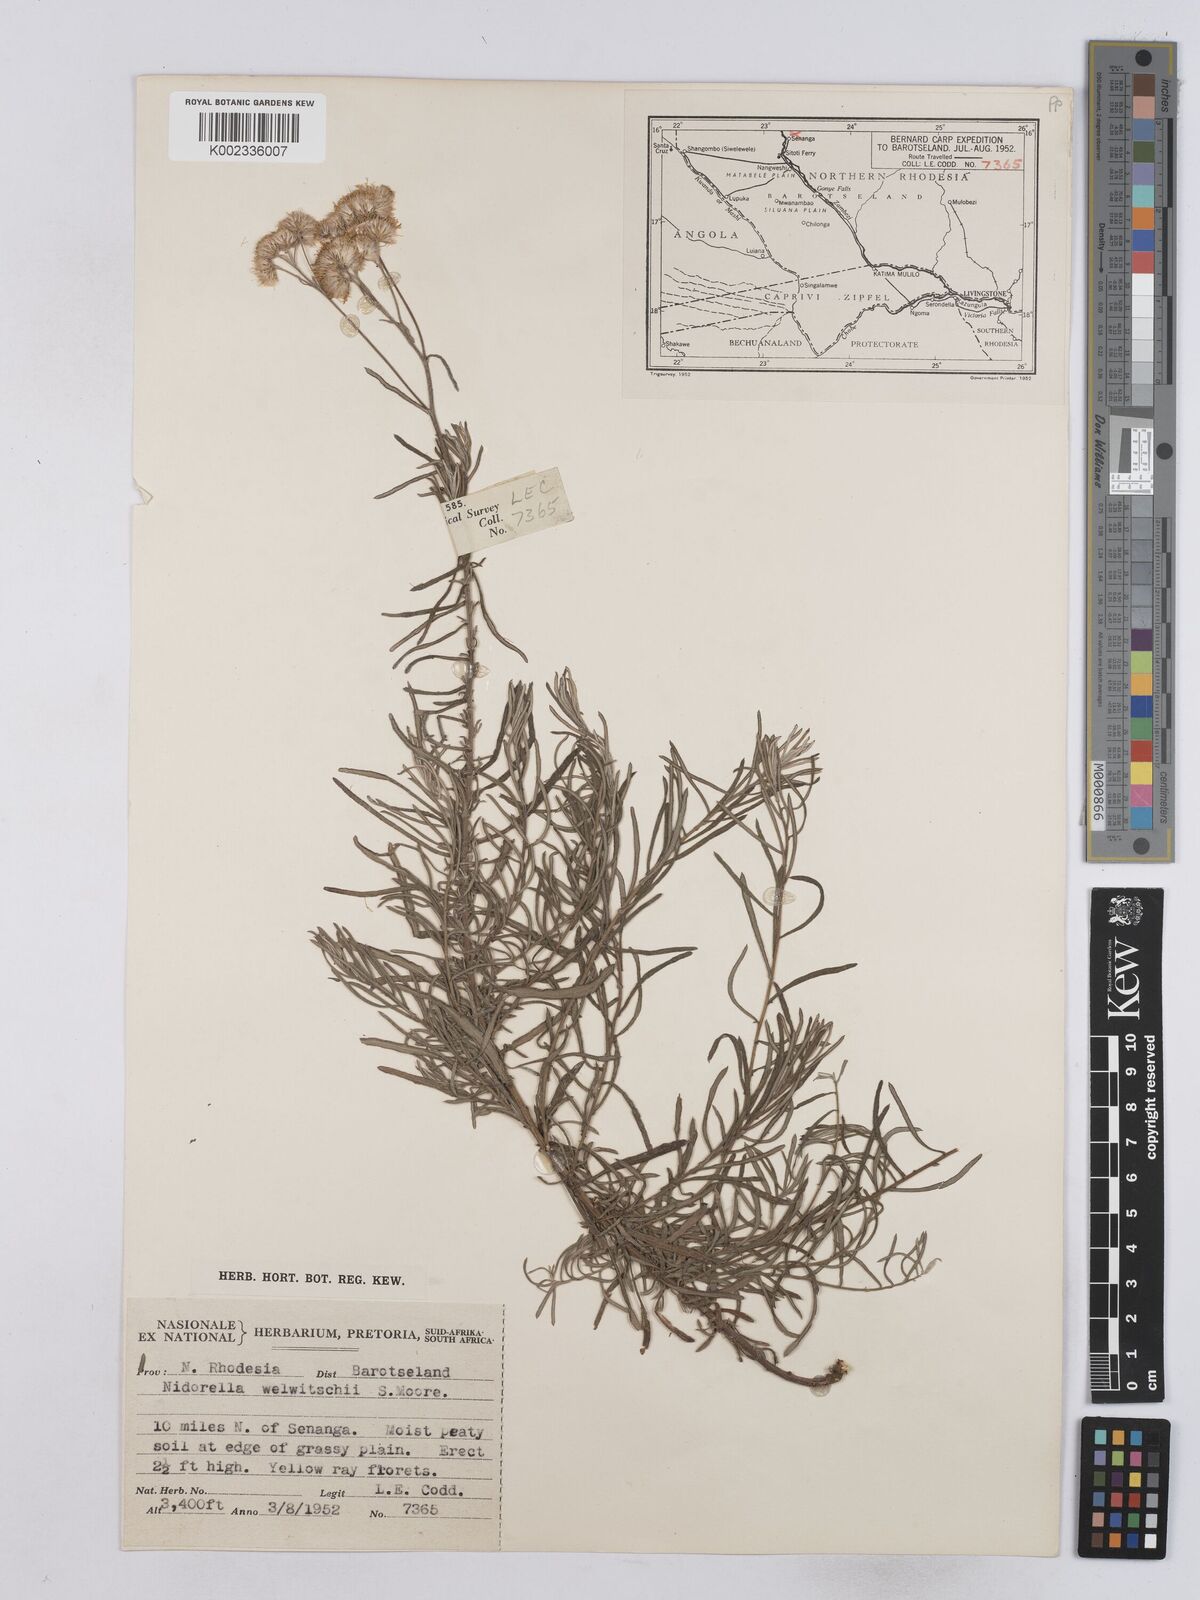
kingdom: Plantae
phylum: Tracheophyta
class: Magnoliopsida
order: Asterales
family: Asteraceae
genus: Nidorella
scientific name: Nidorella welwitschii
